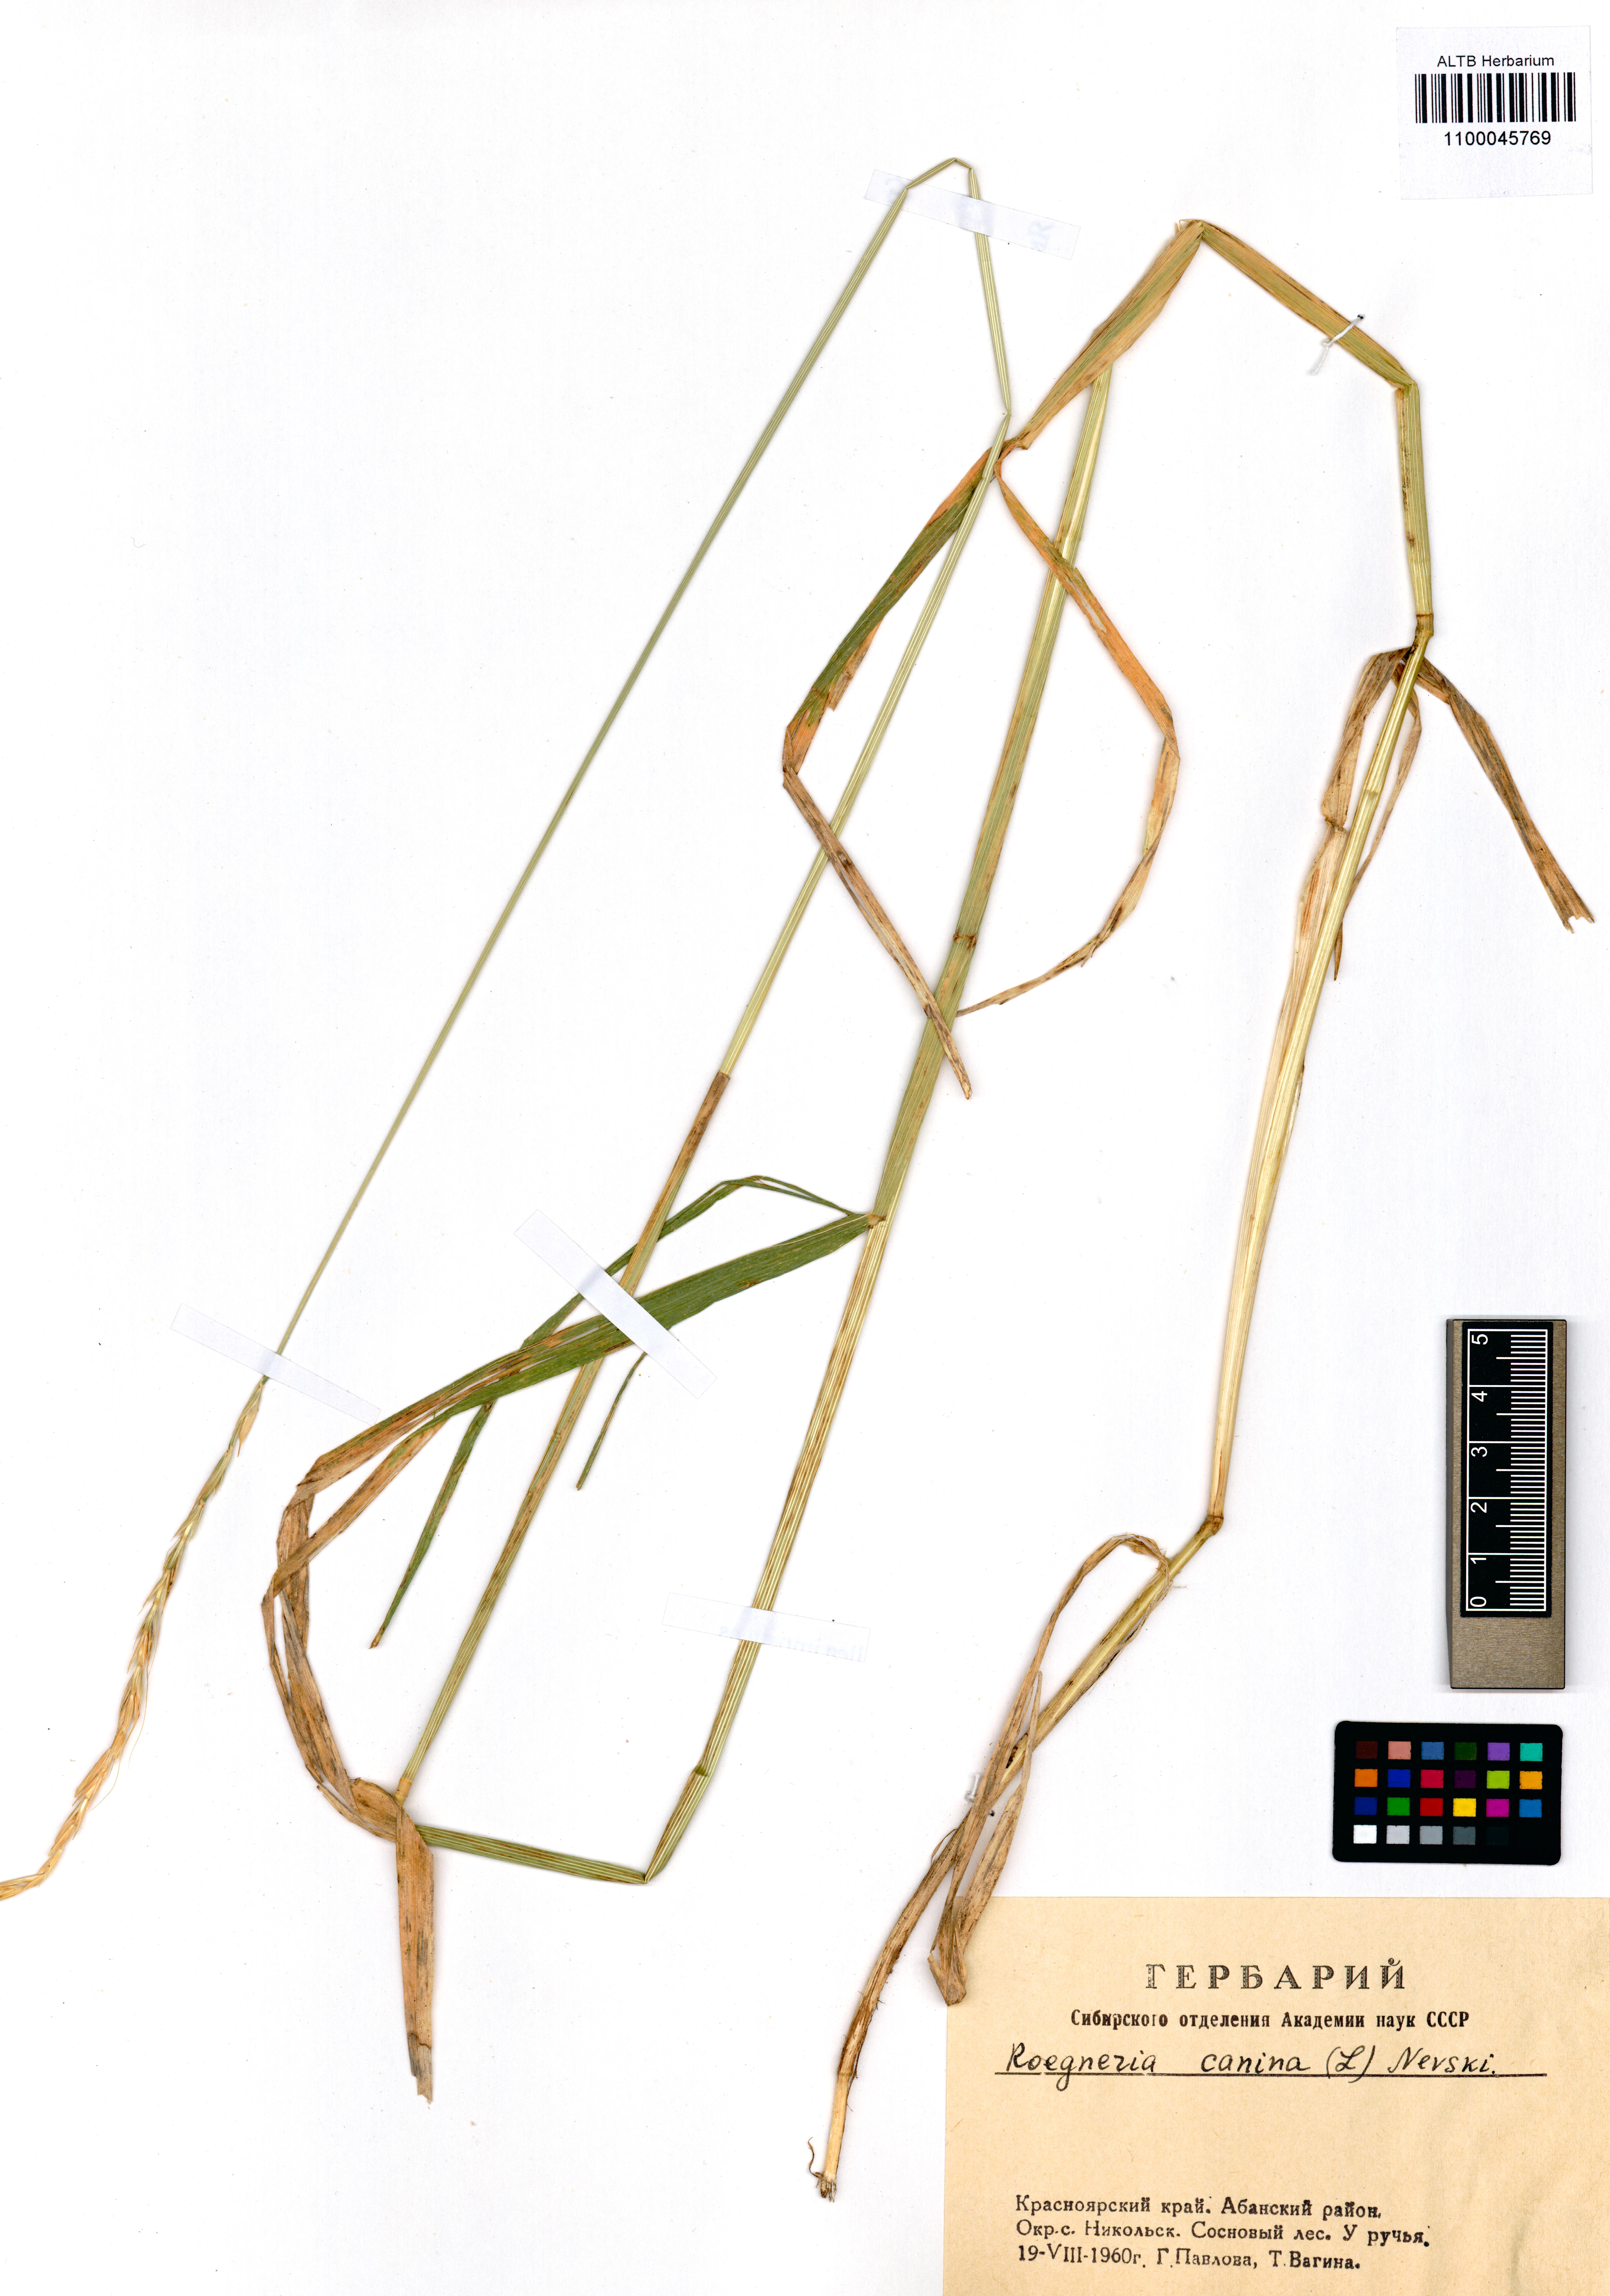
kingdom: Plantae
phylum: Tracheophyta
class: Liliopsida
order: Poales
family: Poaceae
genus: Elymus
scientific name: Elymus caninus
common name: Bearded couch
